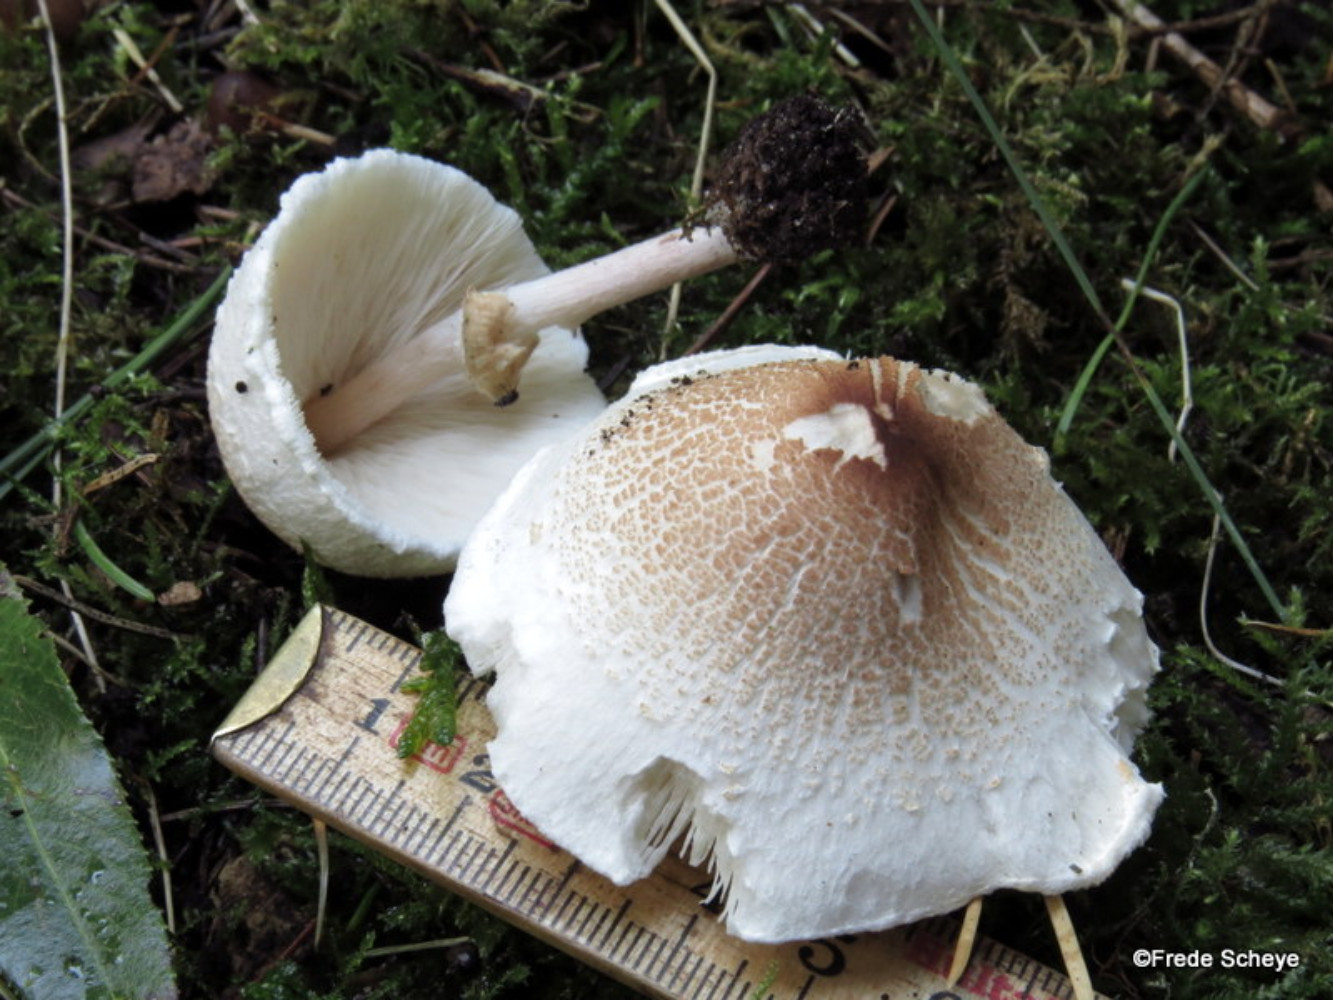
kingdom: Fungi
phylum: Basidiomycota
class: Agaricomycetes
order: Agaricales
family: Agaricaceae
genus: Lepiota
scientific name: Lepiota cristata
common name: stinkende parasolhat
